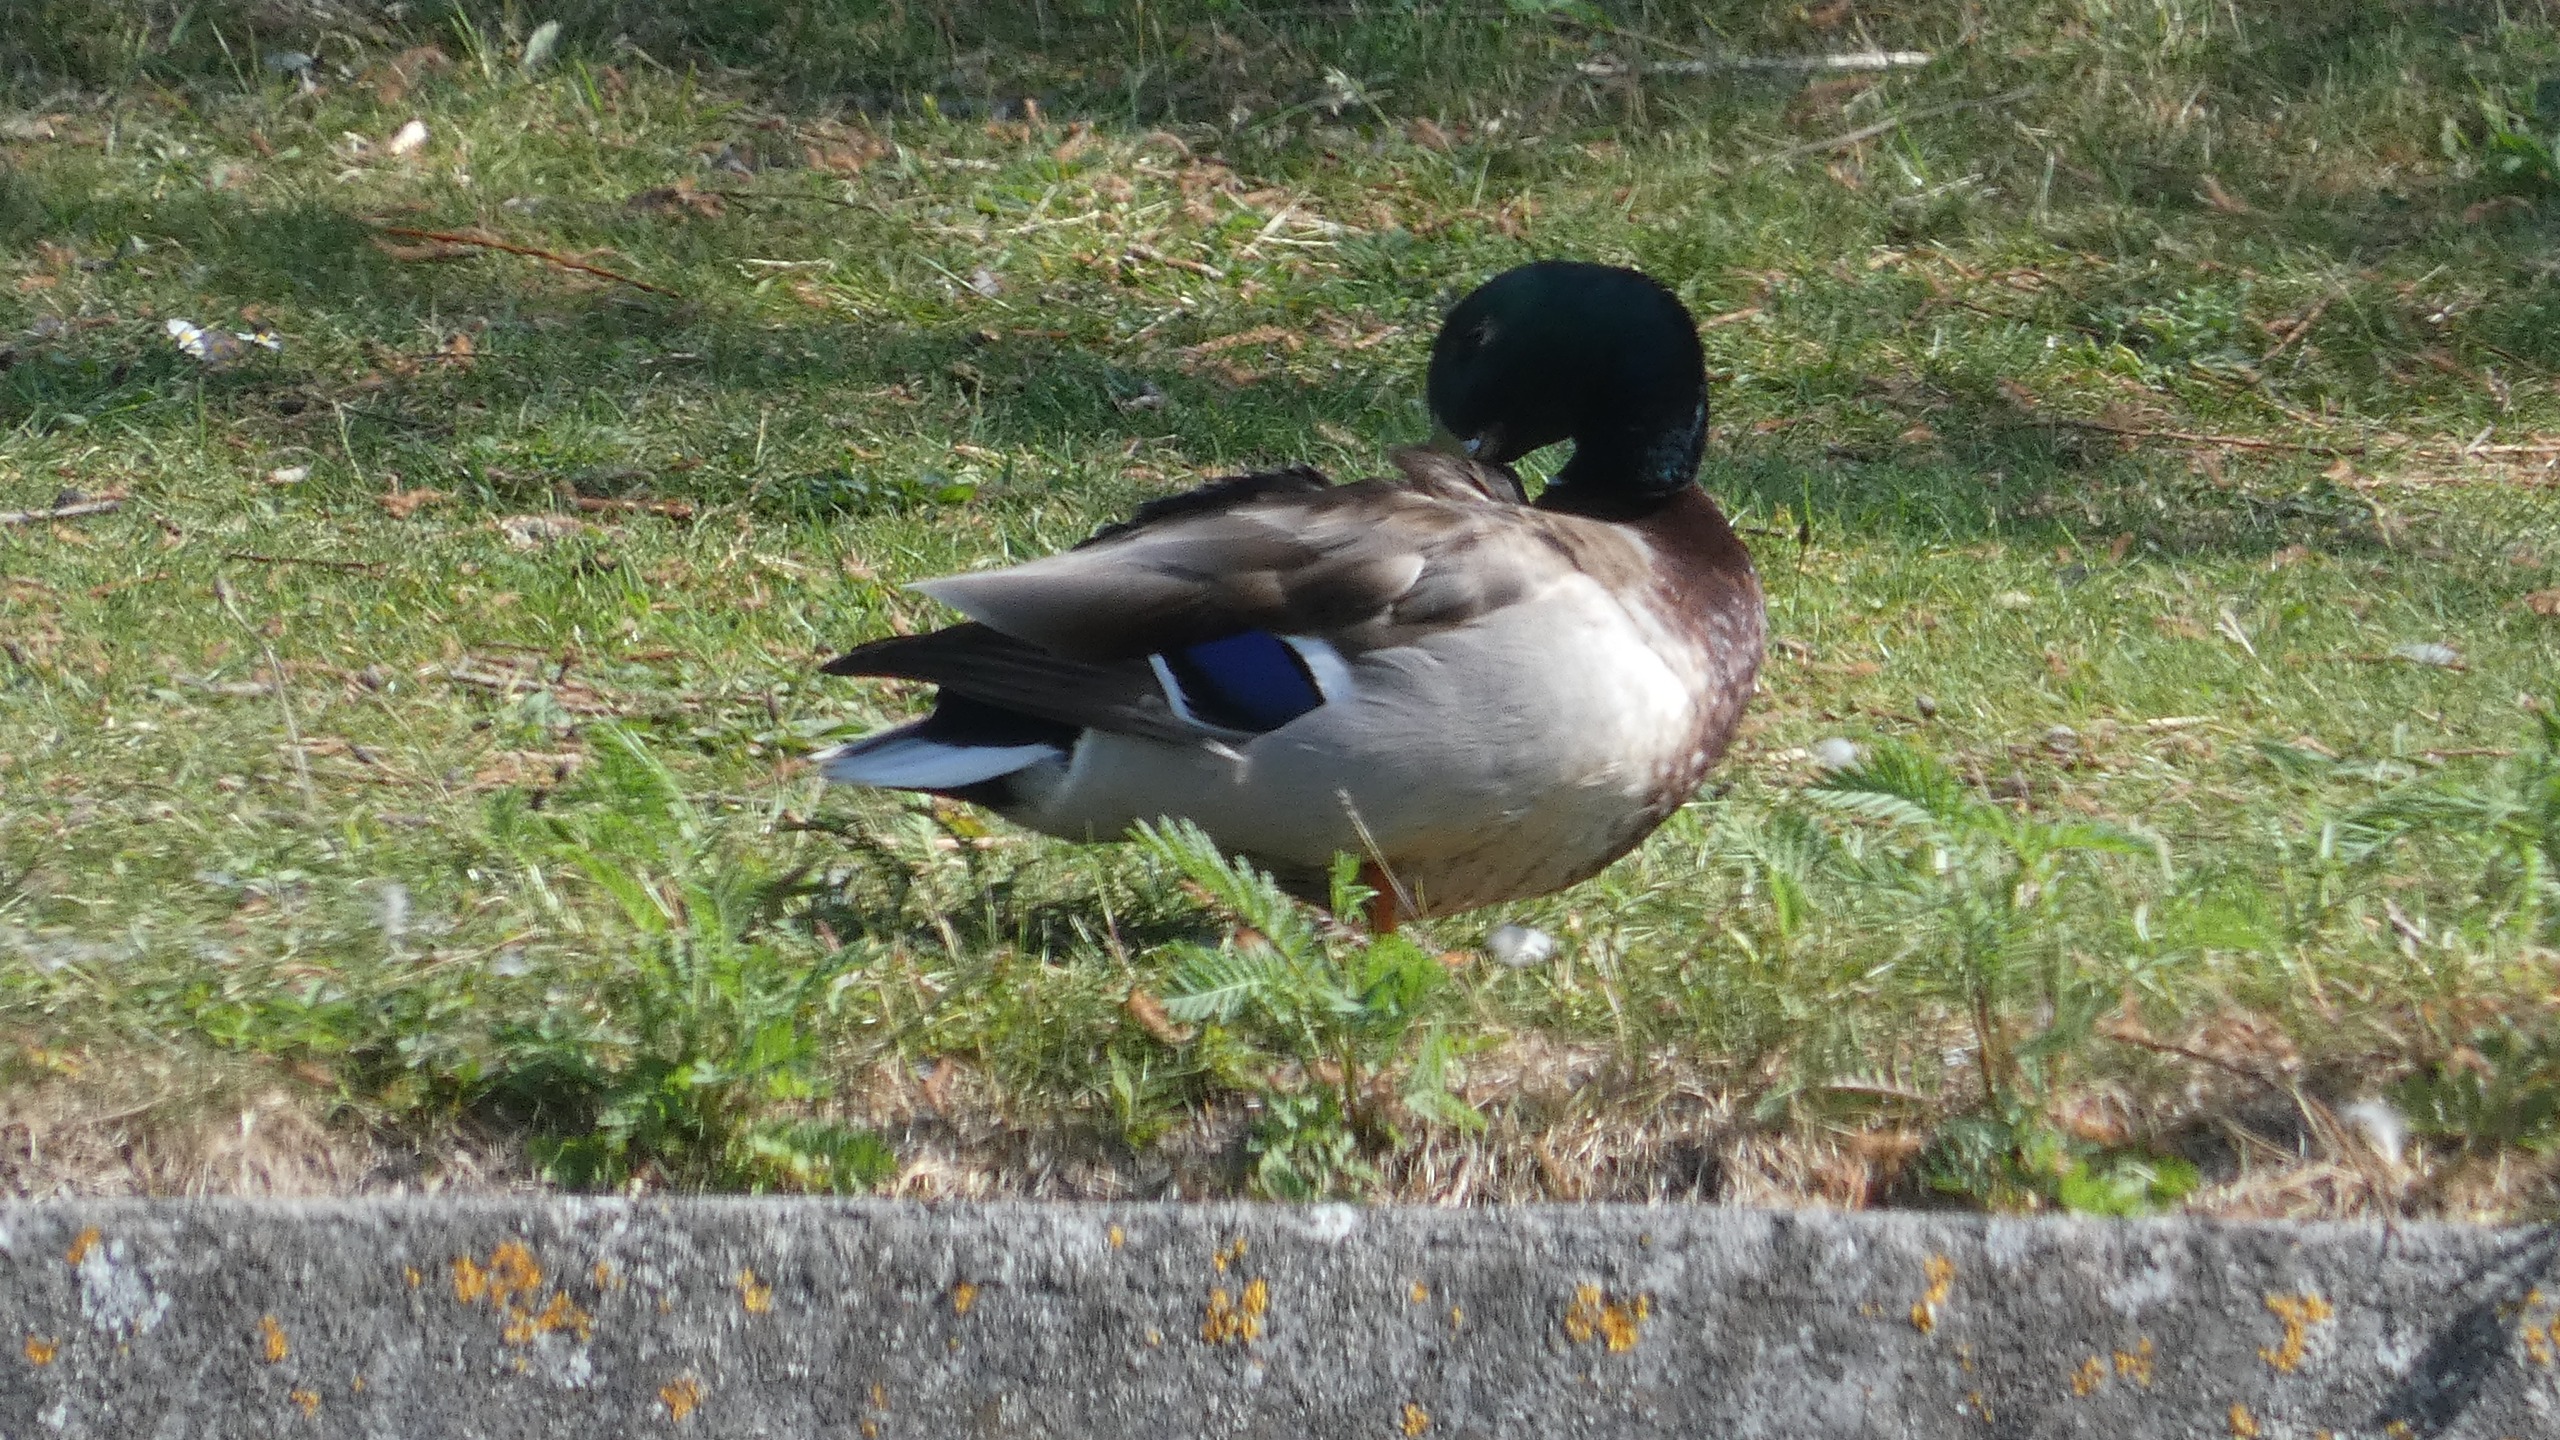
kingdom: Animalia
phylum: Chordata
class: Aves
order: Anseriformes
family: Anatidae
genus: Anas
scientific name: Anas platyrhynchos
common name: Gråand
